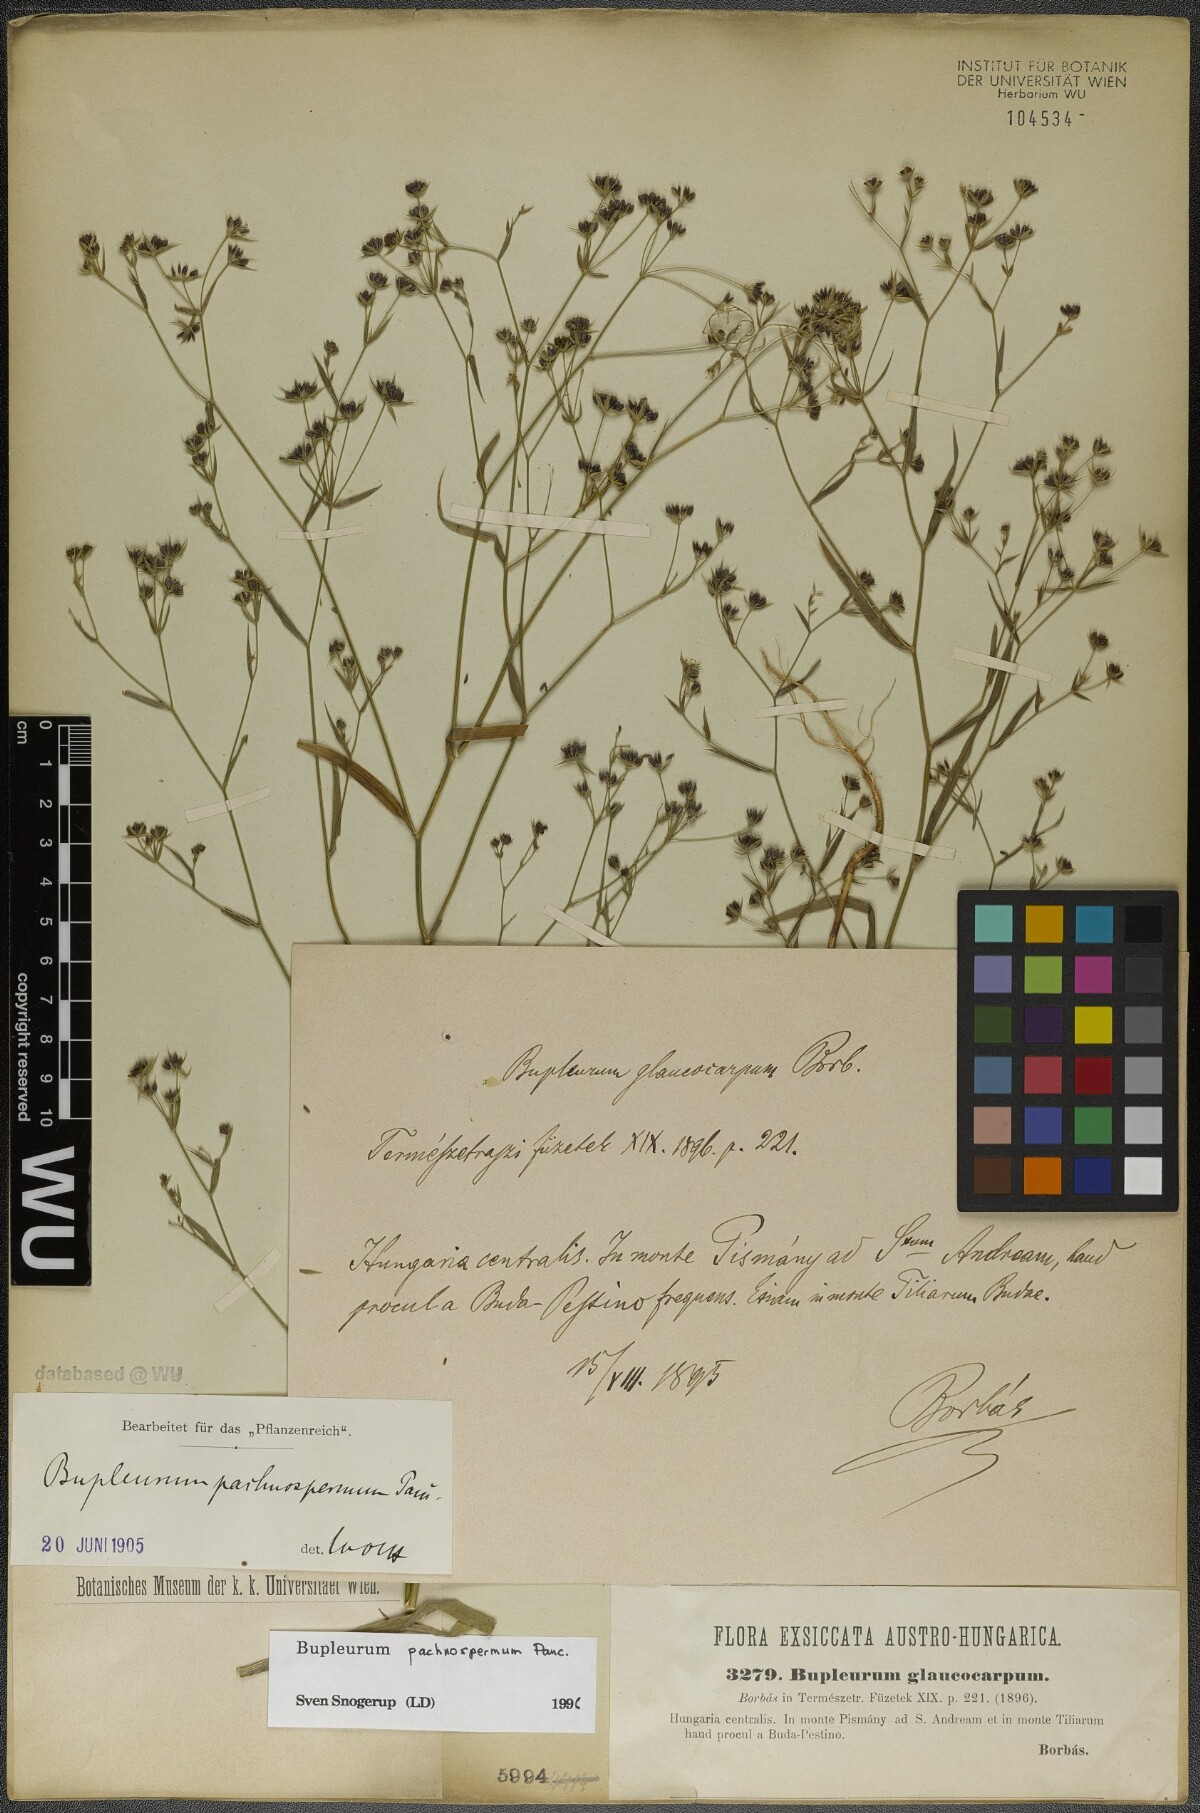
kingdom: Plantae
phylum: Tracheophyta
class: Magnoliopsida
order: Apiales
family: Apiaceae
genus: Bupleurum
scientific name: Bupleurum pachnospermum
